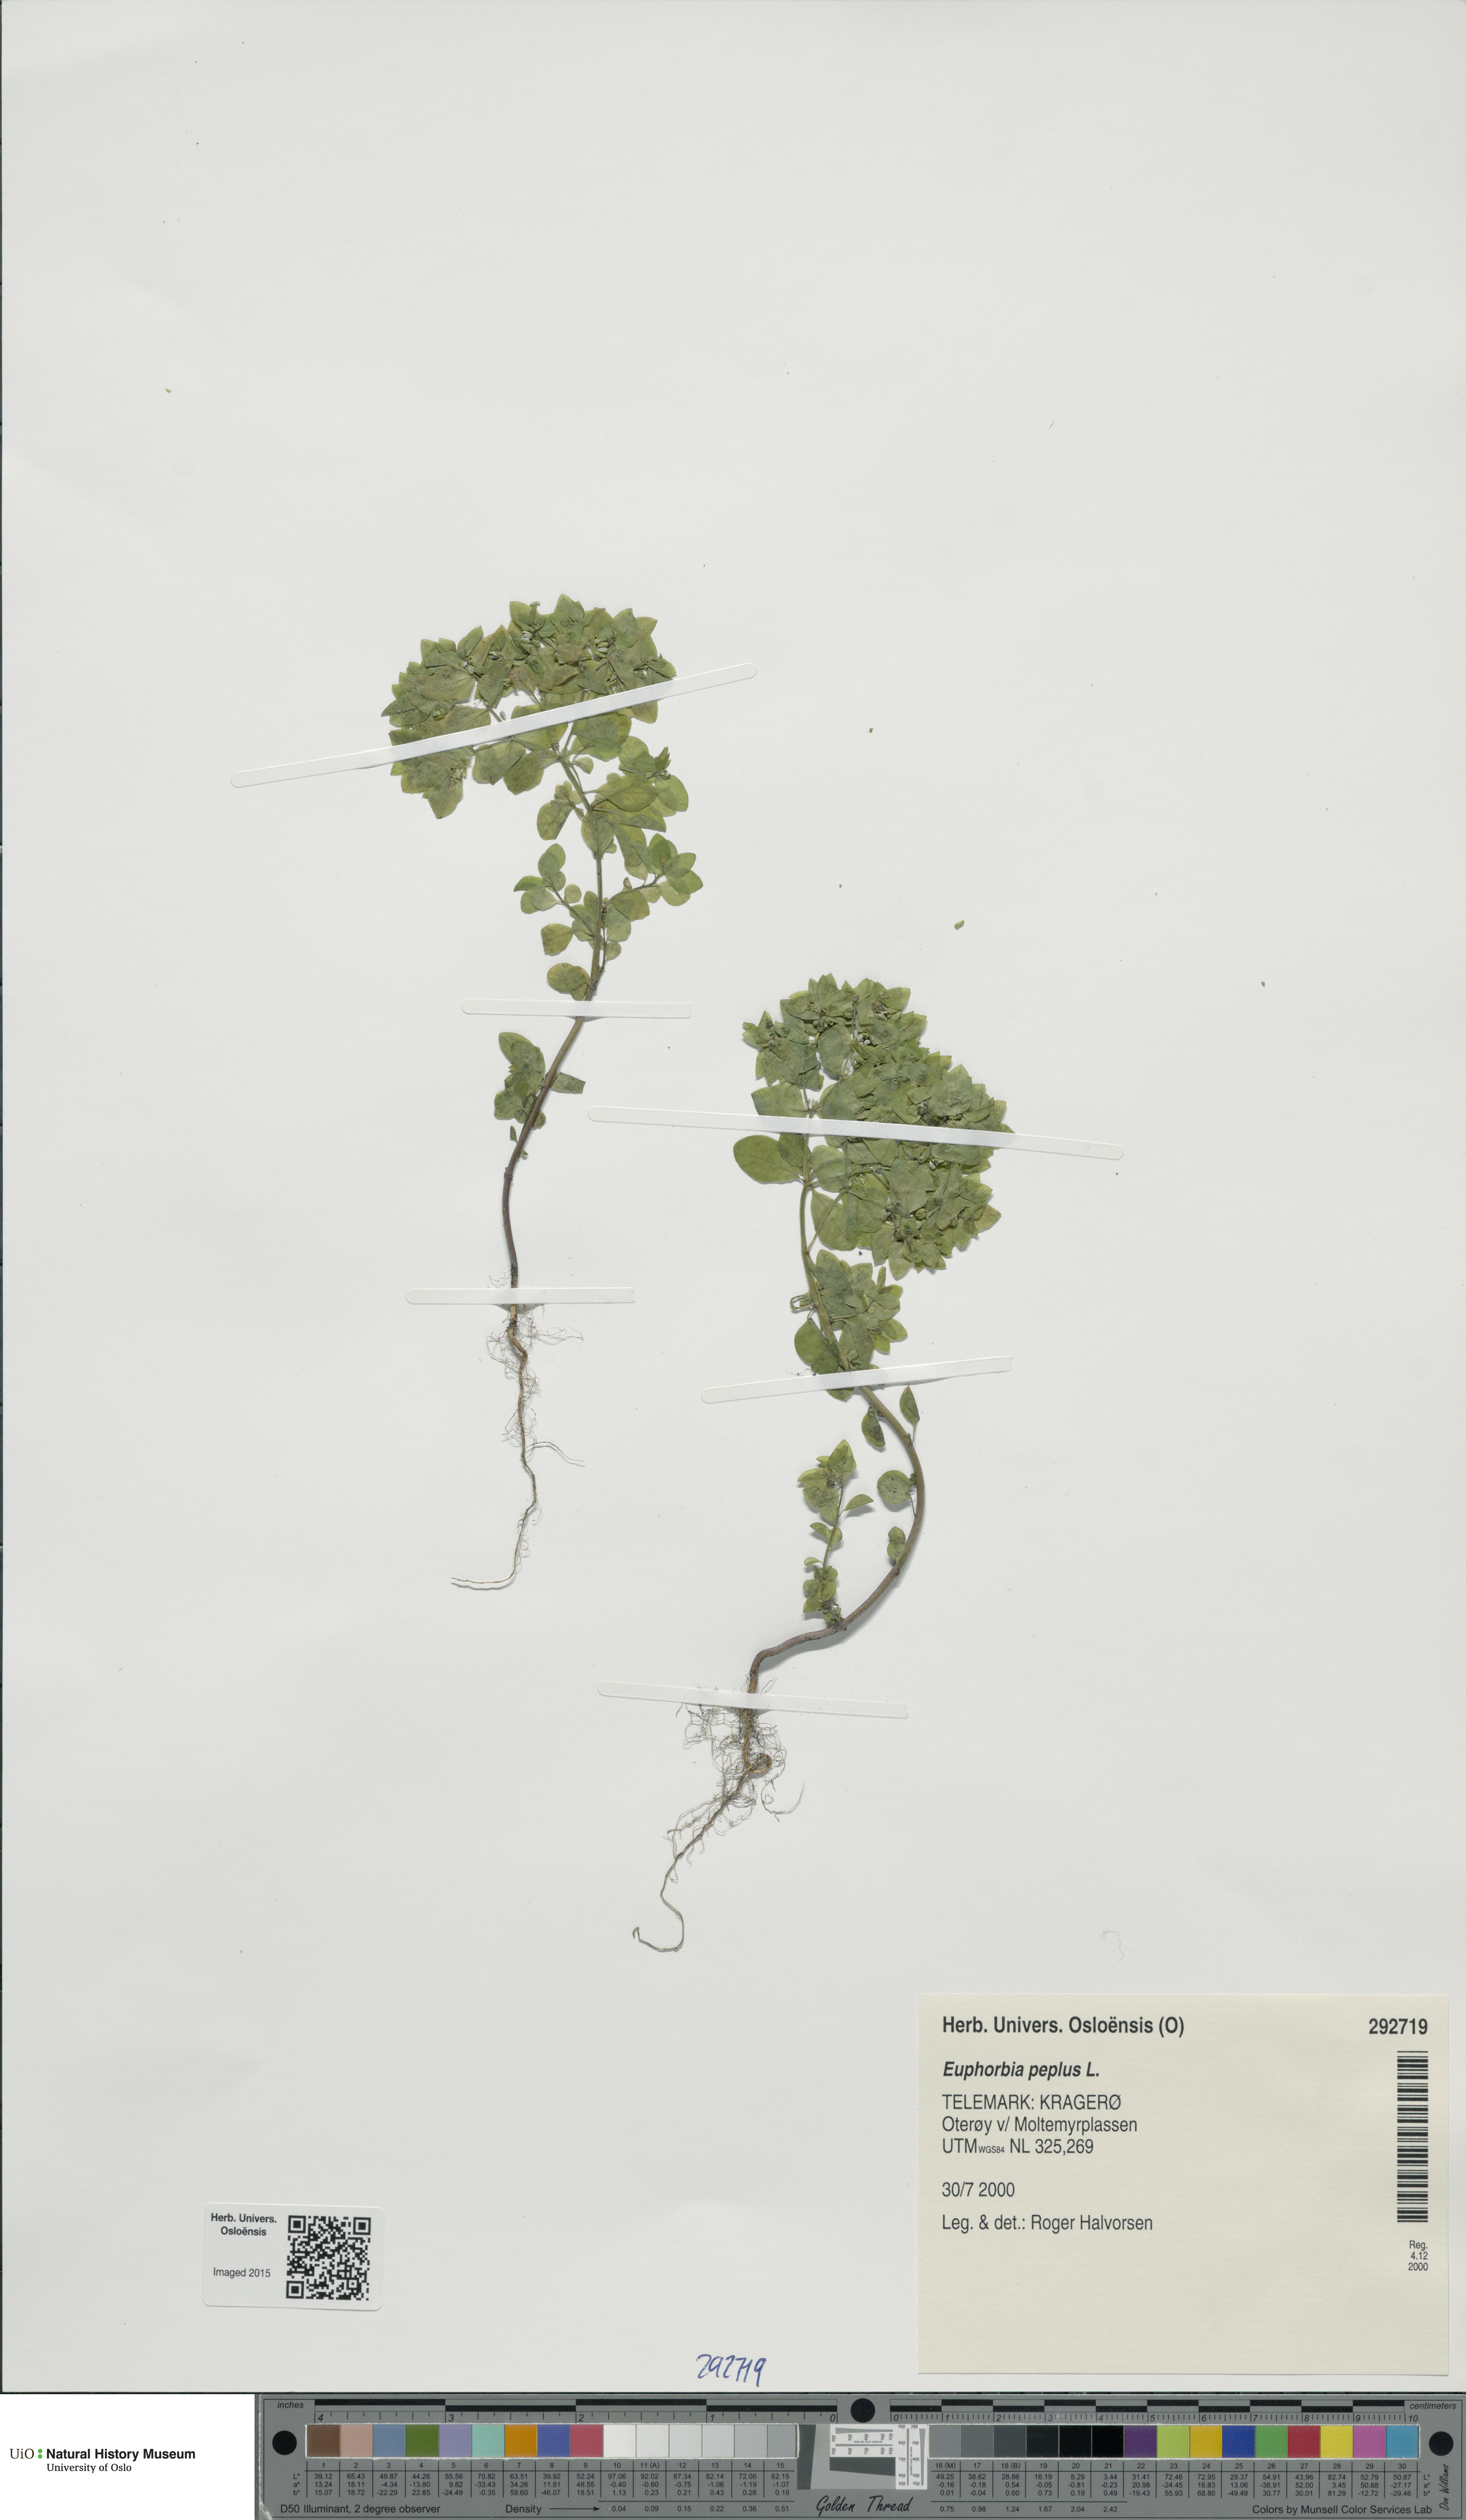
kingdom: Plantae
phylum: Tracheophyta
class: Magnoliopsida
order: Malpighiales
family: Euphorbiaceae
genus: Euphorbia
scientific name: Euphorbia peplus
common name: Petty spurge
